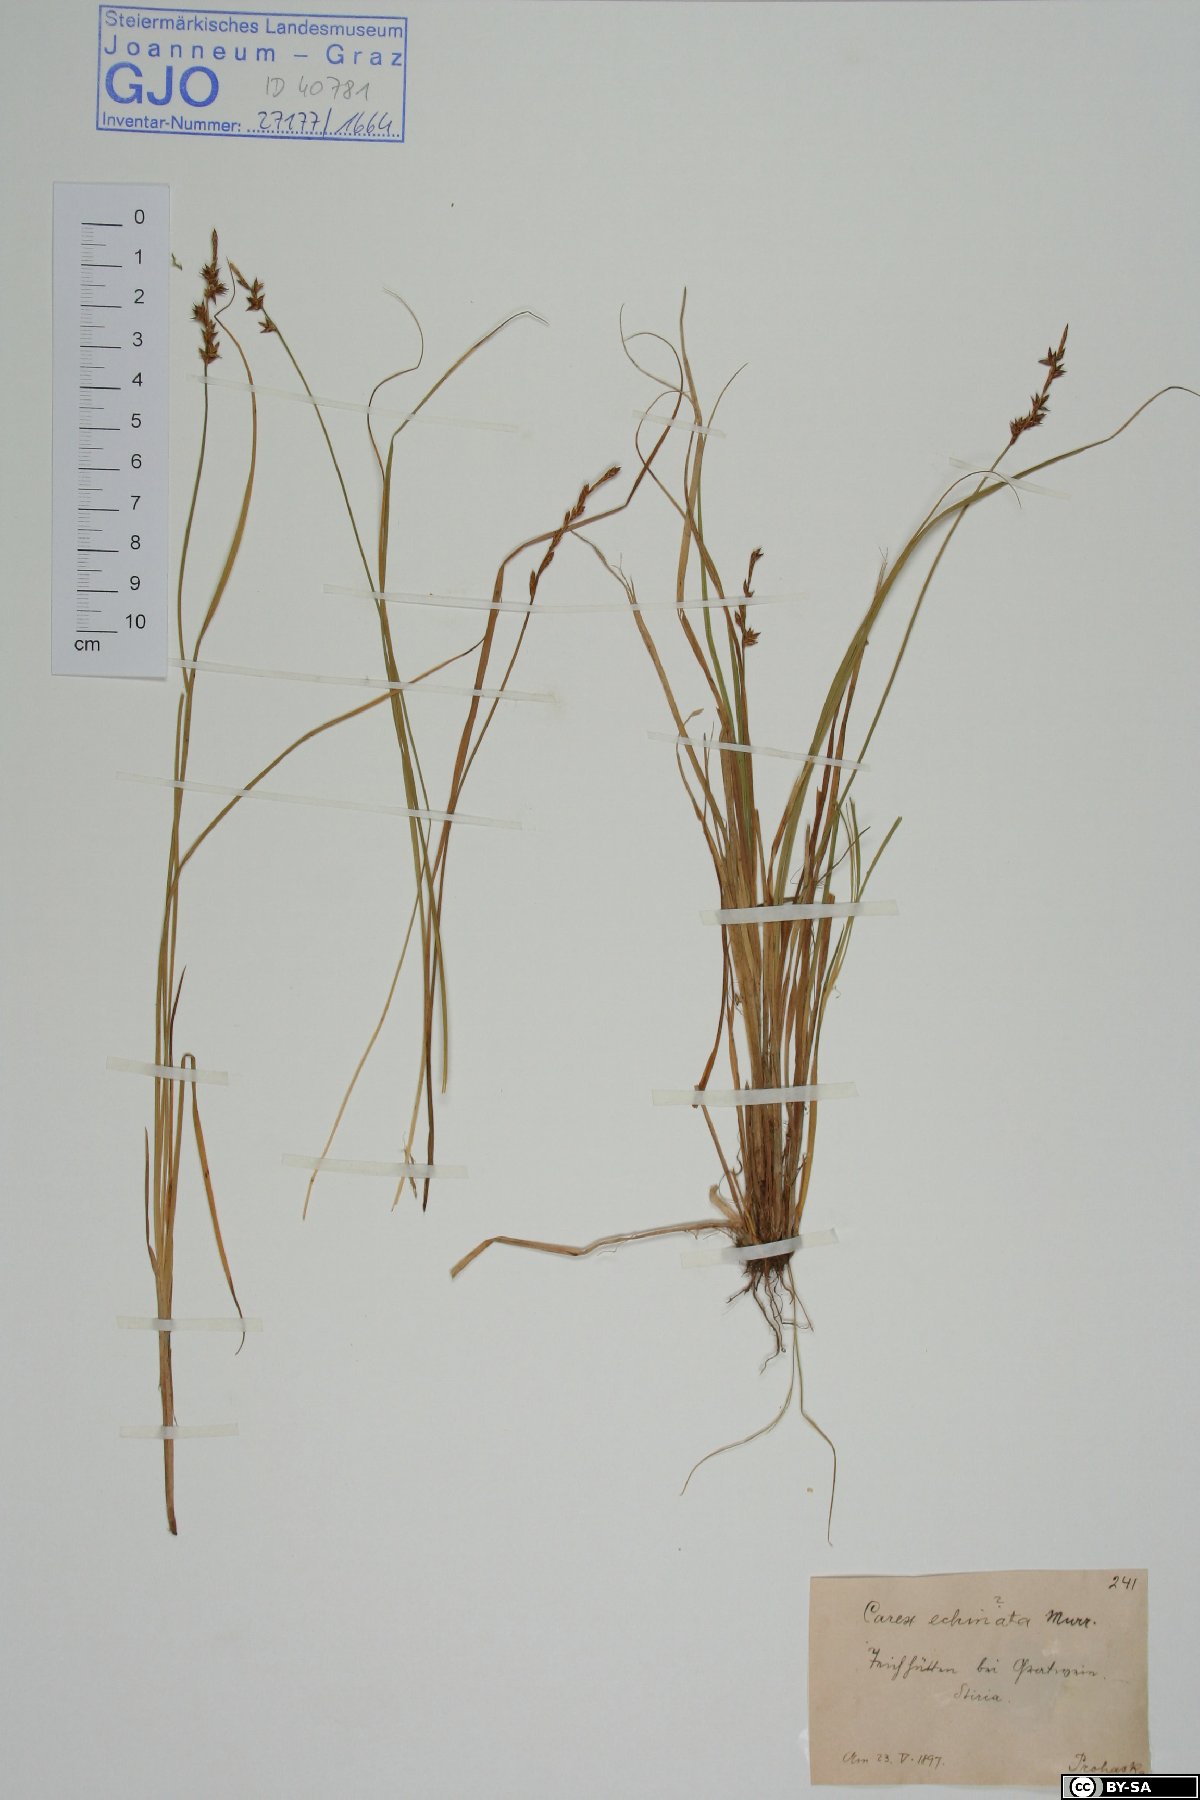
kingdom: Plantae
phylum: Tracheophyta
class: Liliopsida
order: Poales
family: Cyperaceae
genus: Carex
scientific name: Carex echinata
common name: Star sedge
